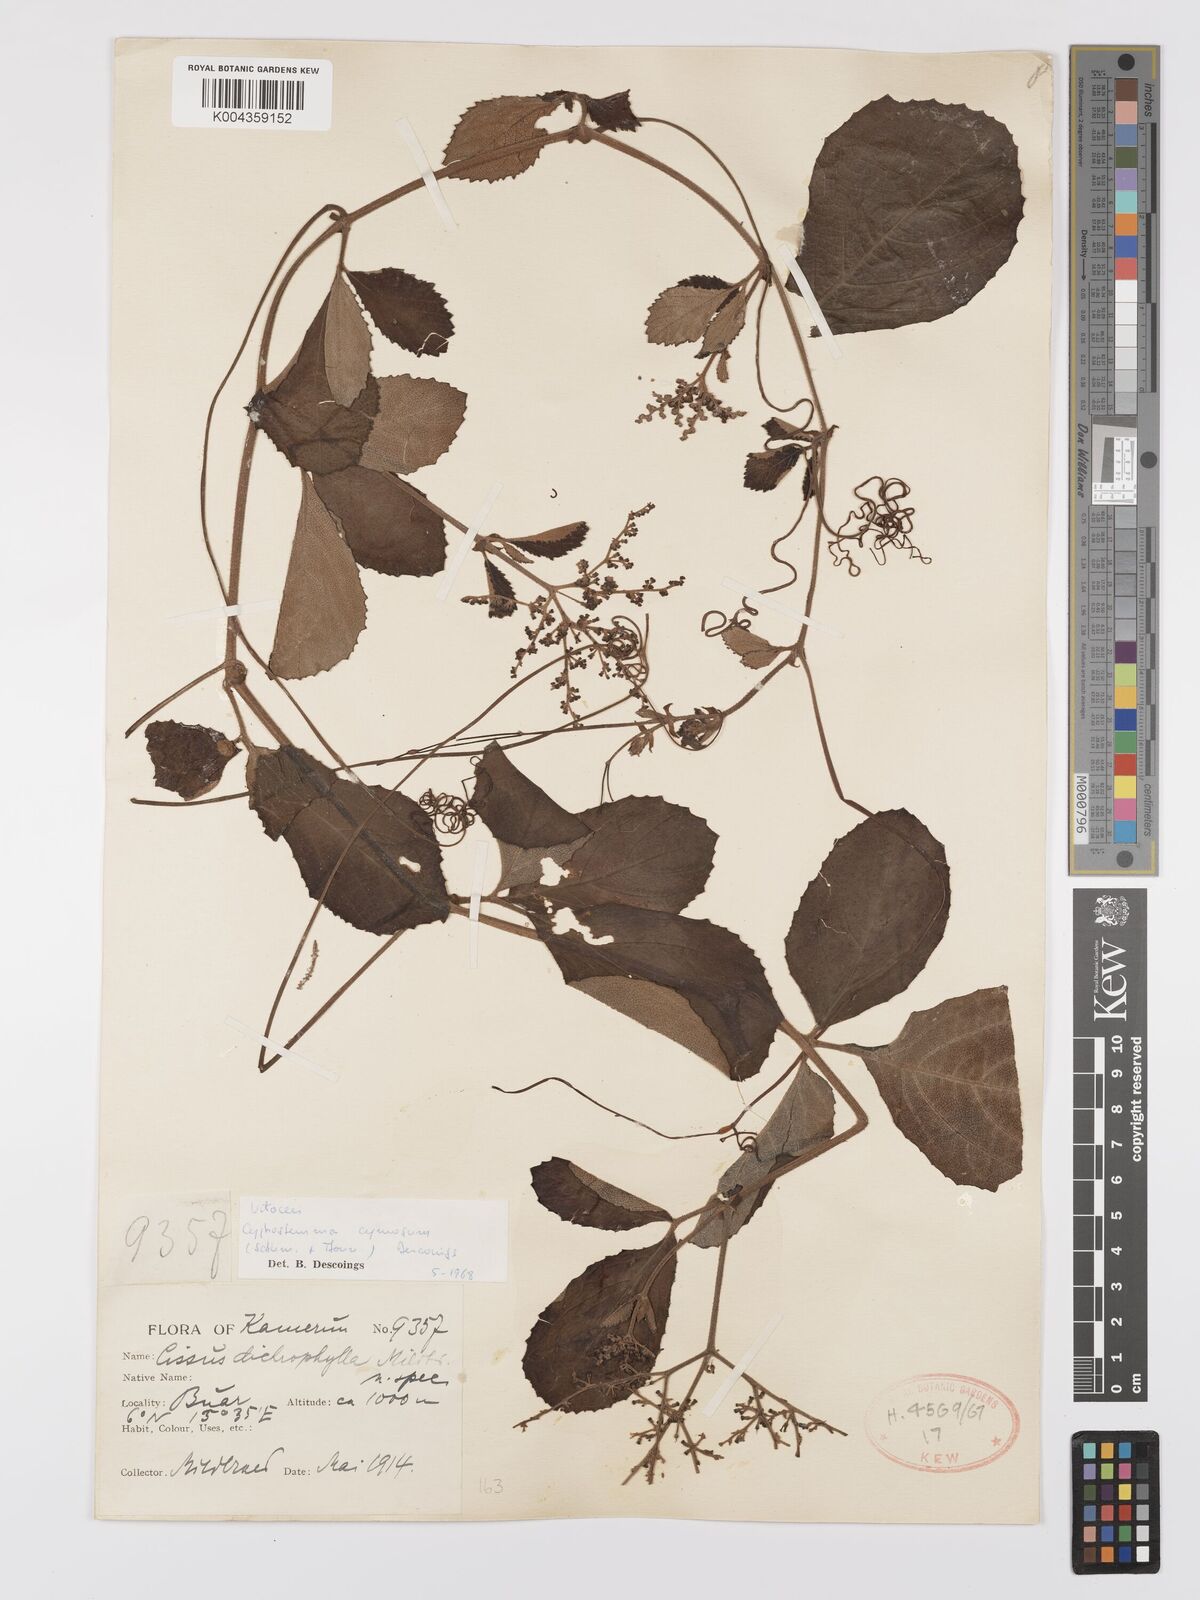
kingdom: Plantae
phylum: Tracheophyta
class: Magnoliopsida
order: Vitales
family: Vitaceae
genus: Cyphostemma
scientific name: Cyphostemma cymosum
